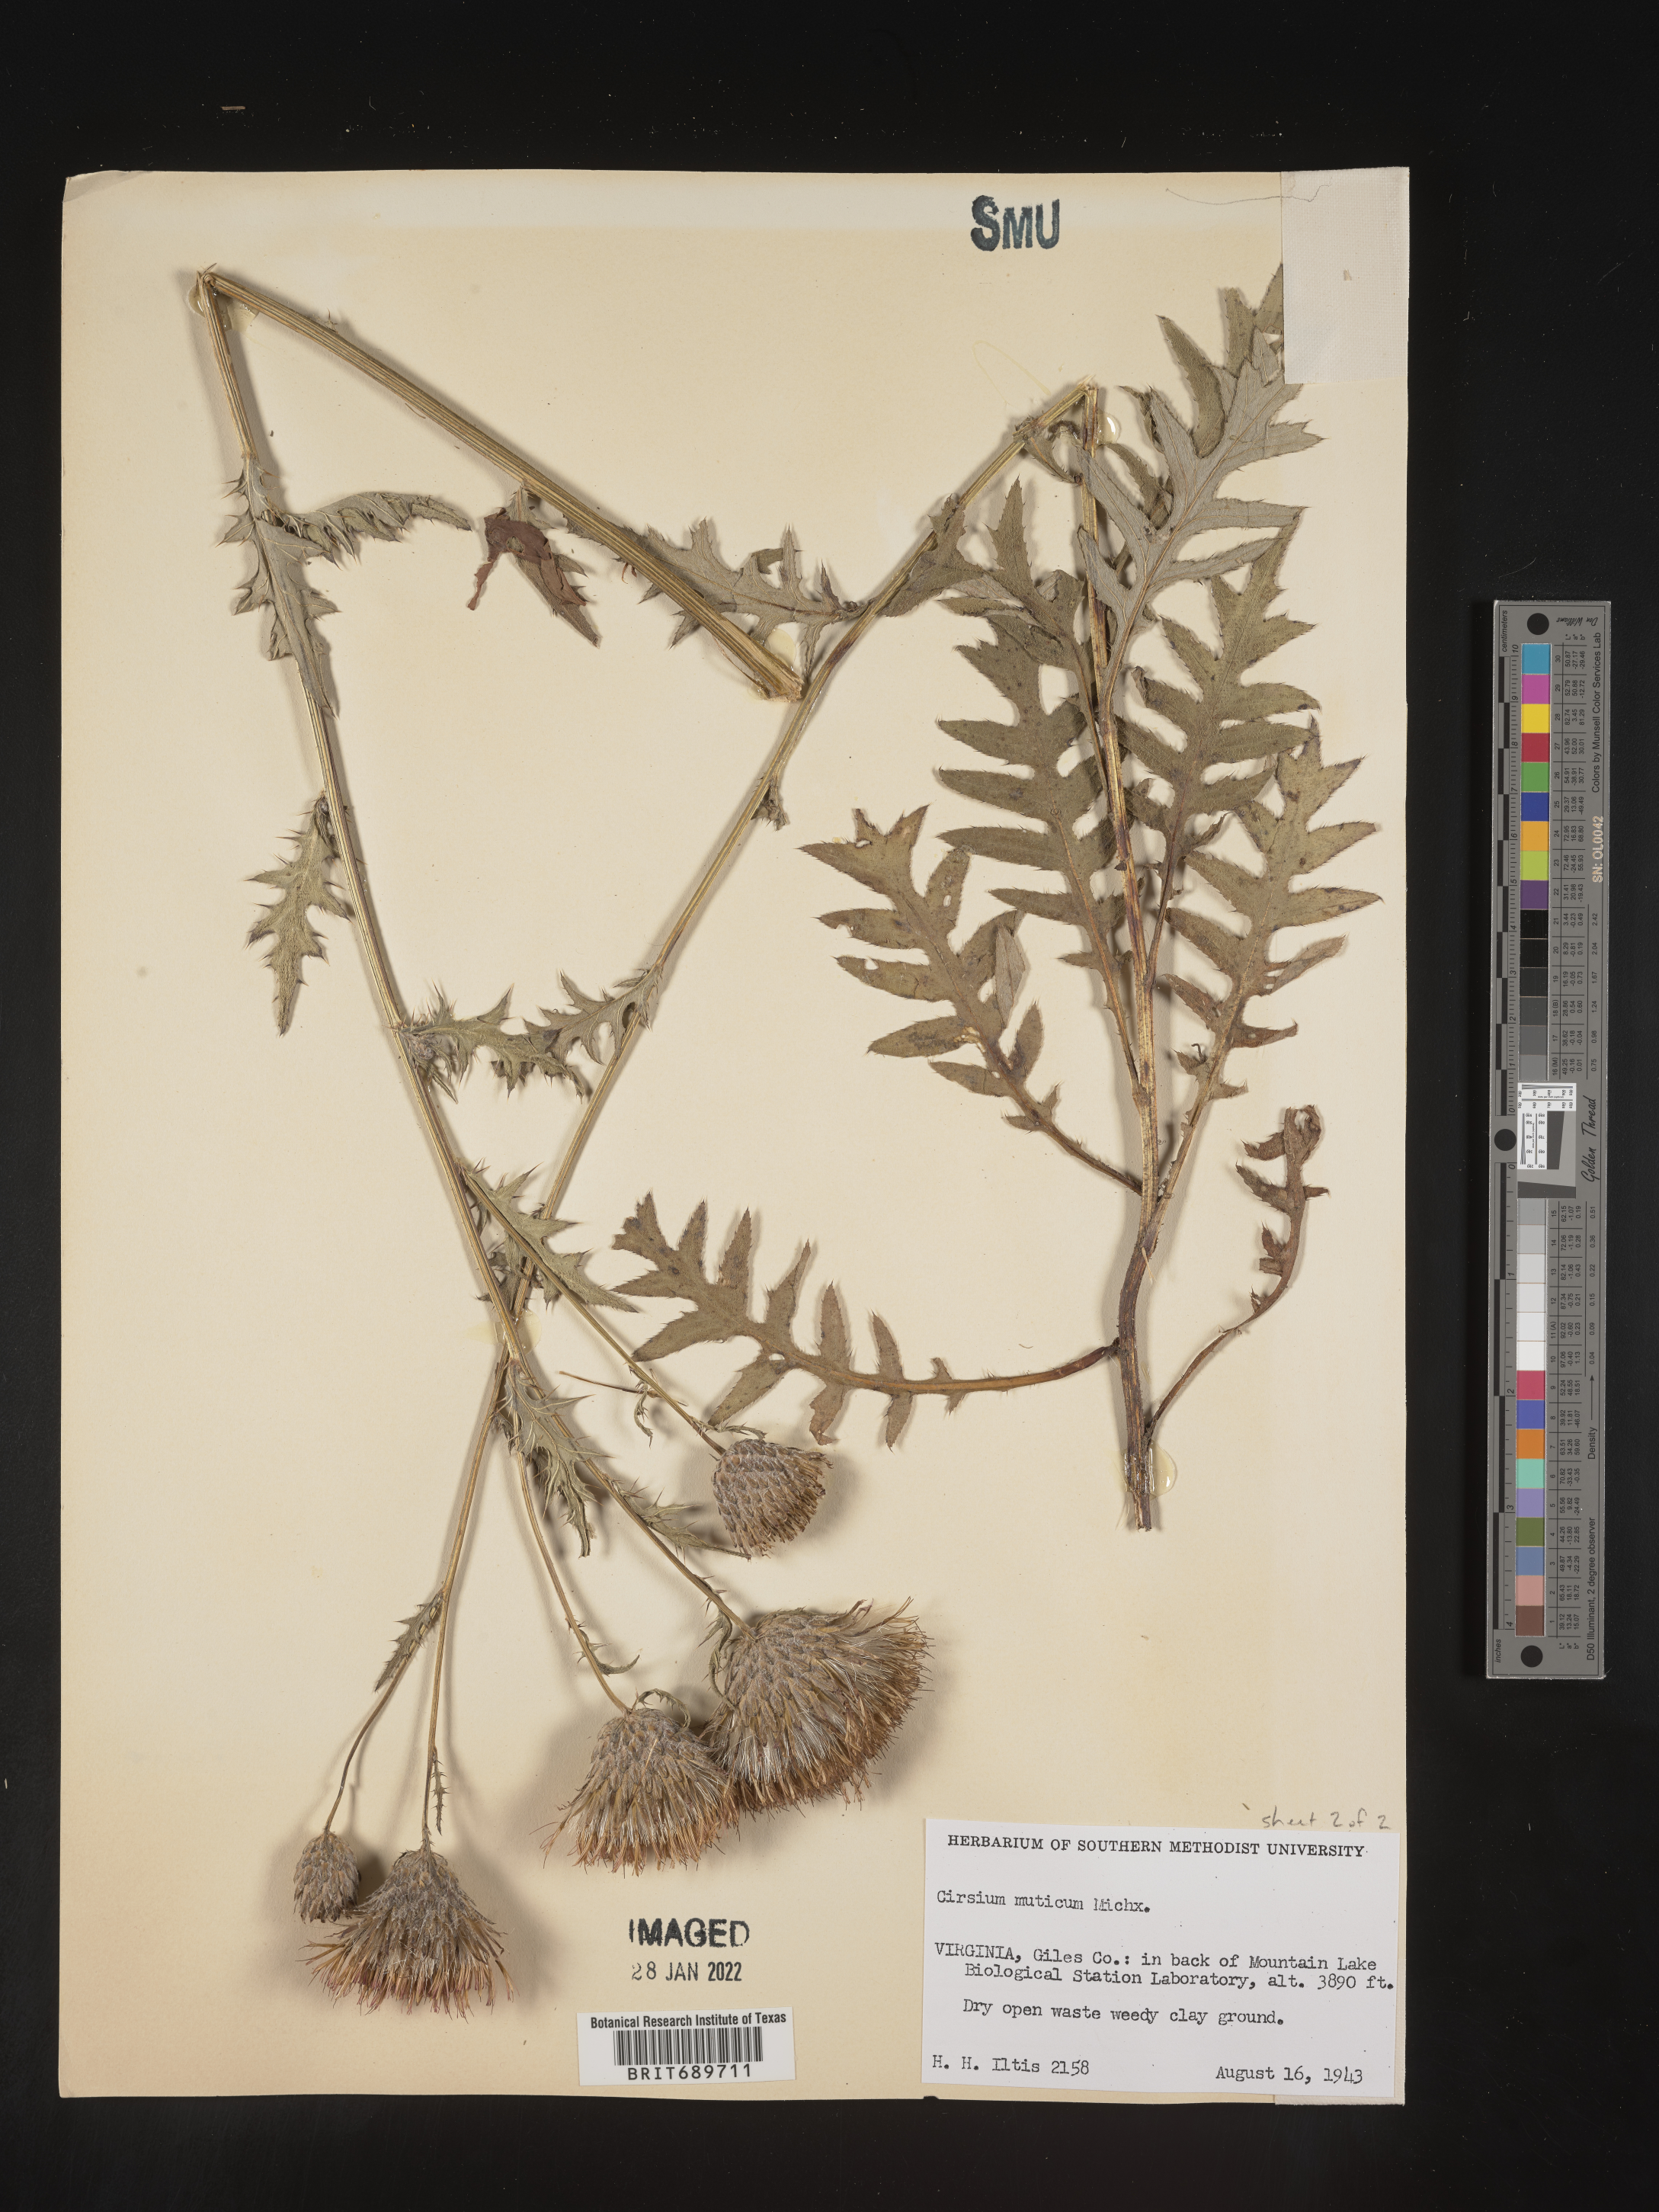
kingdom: Plantae
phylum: Tracheophyta
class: Magnoliopsida
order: Asterales
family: Asteraceae
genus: Cirsium
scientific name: Cirsium muticum
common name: Dunce-nettle
